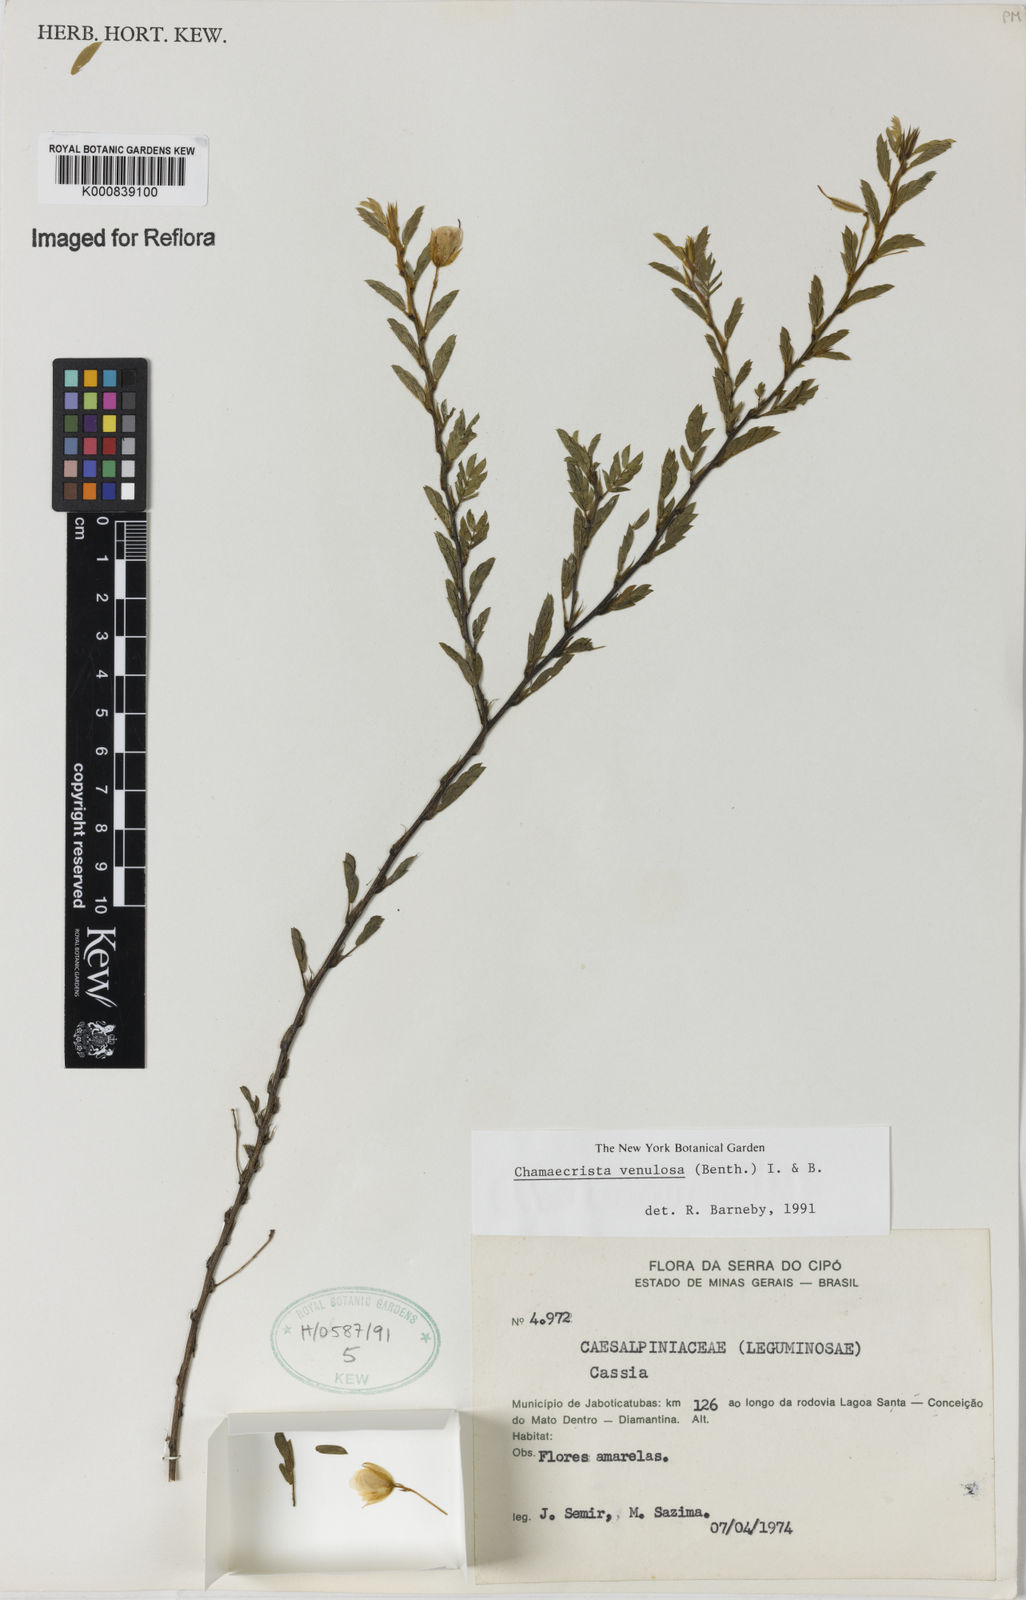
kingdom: Plantae
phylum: Tracheophyta
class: Magnoliopsida
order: Fabales
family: Fabaceae
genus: Chamaecrista
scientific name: Chamaecrista venulosa
